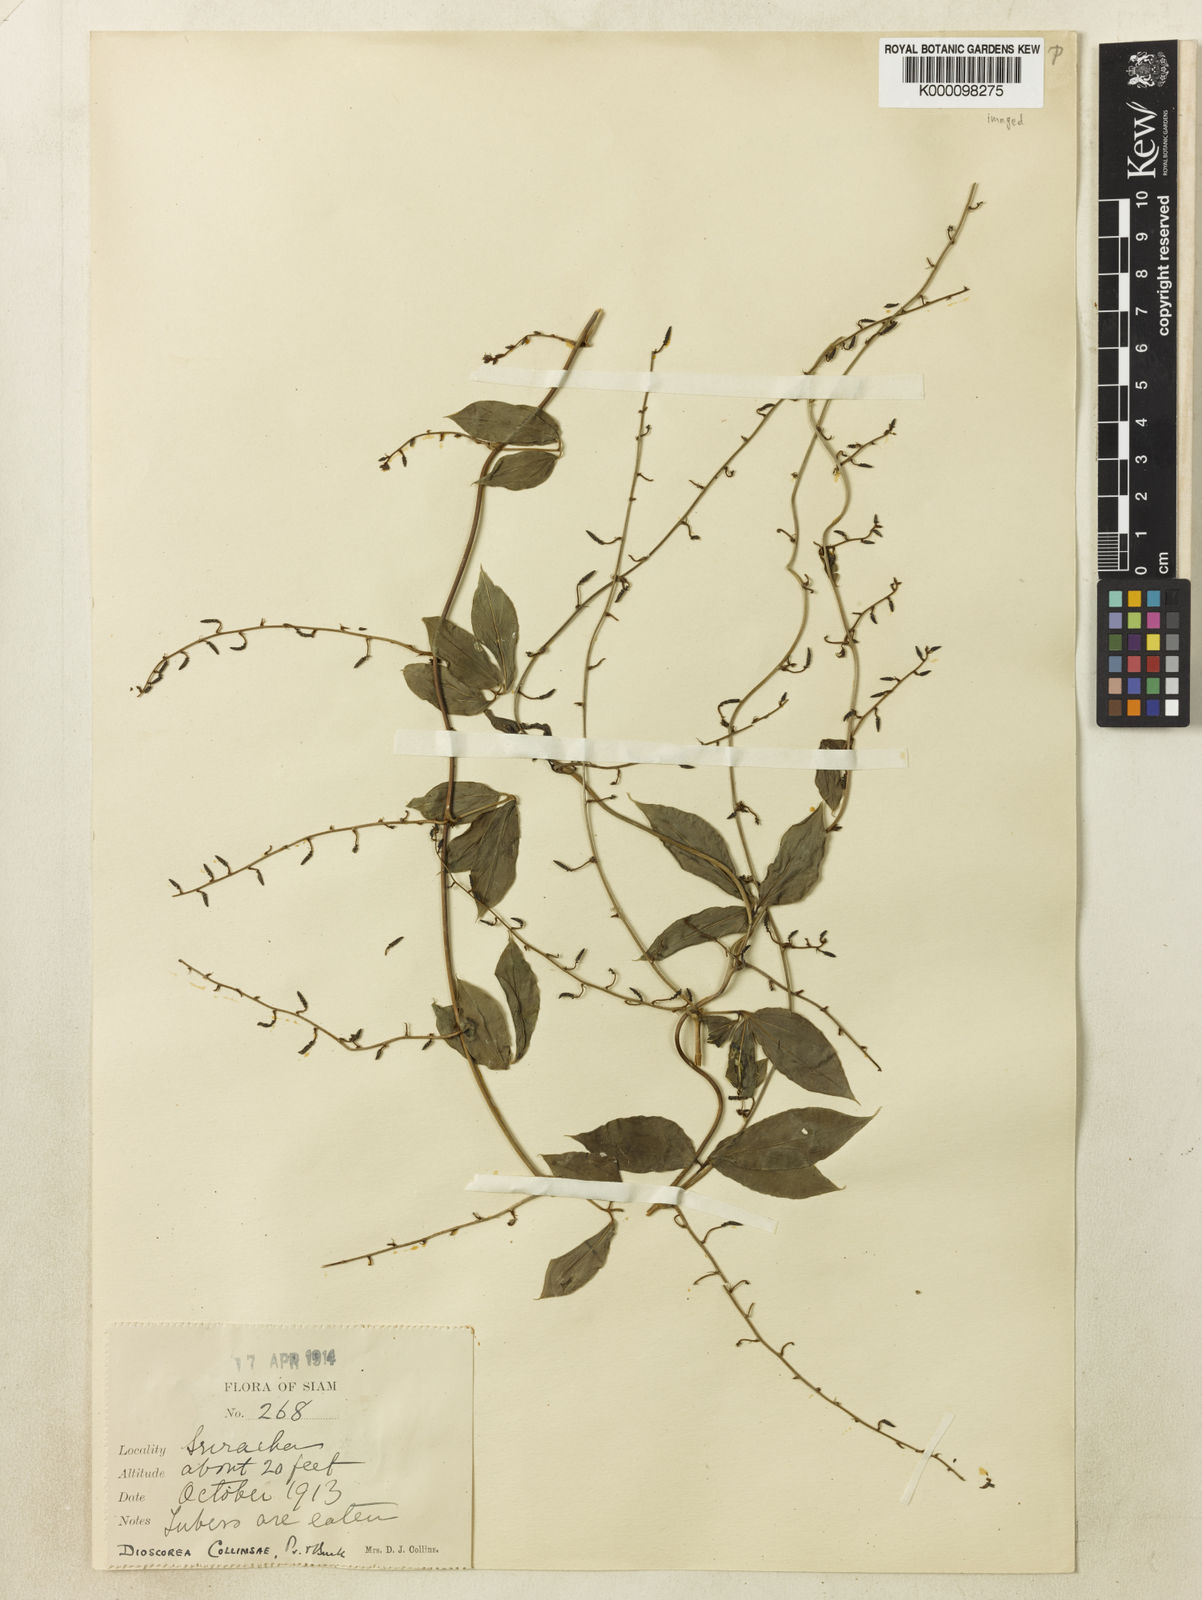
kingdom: Plantae
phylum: Tracheophyta
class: Liliopsida
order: Dioscoreales
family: Dioscoreaceae
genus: Dioscorea
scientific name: Dioscorea arachidna
